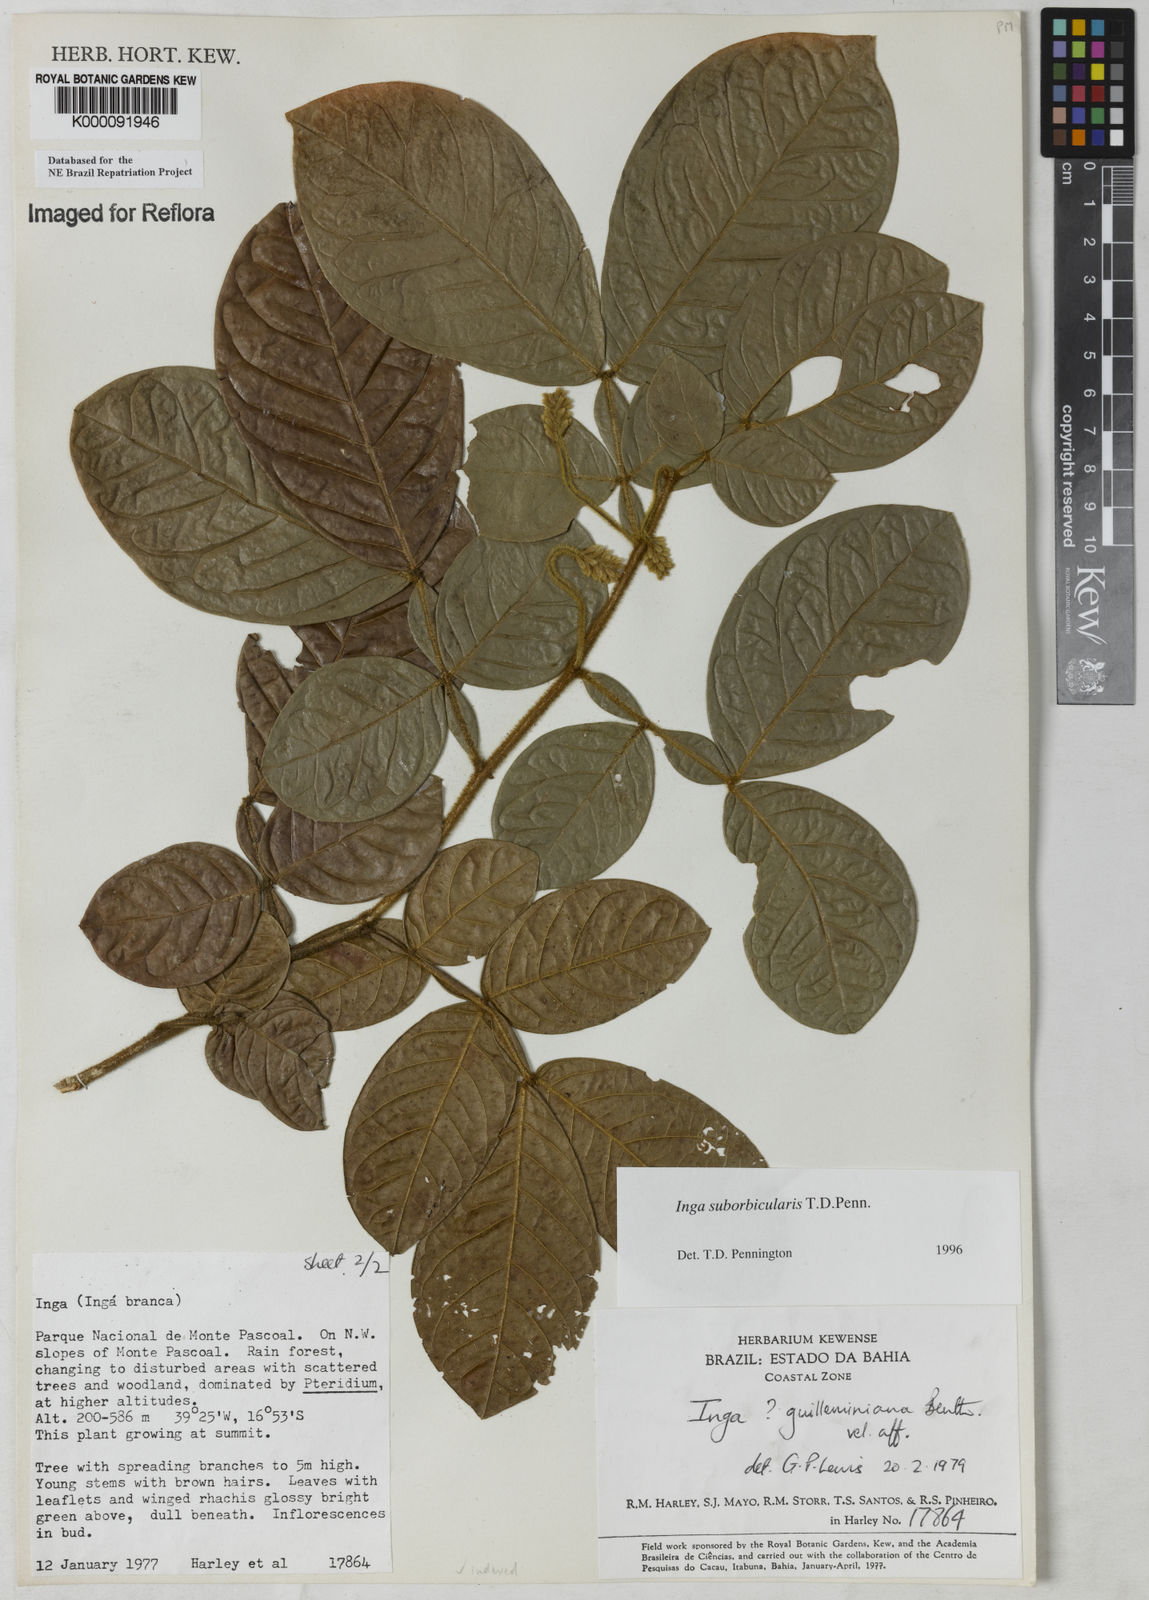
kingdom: Plantae
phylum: Tracheophyta
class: Magnoliopsida
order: Fabales
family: Fabaceae
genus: Inga
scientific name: Inga suborbicularis
